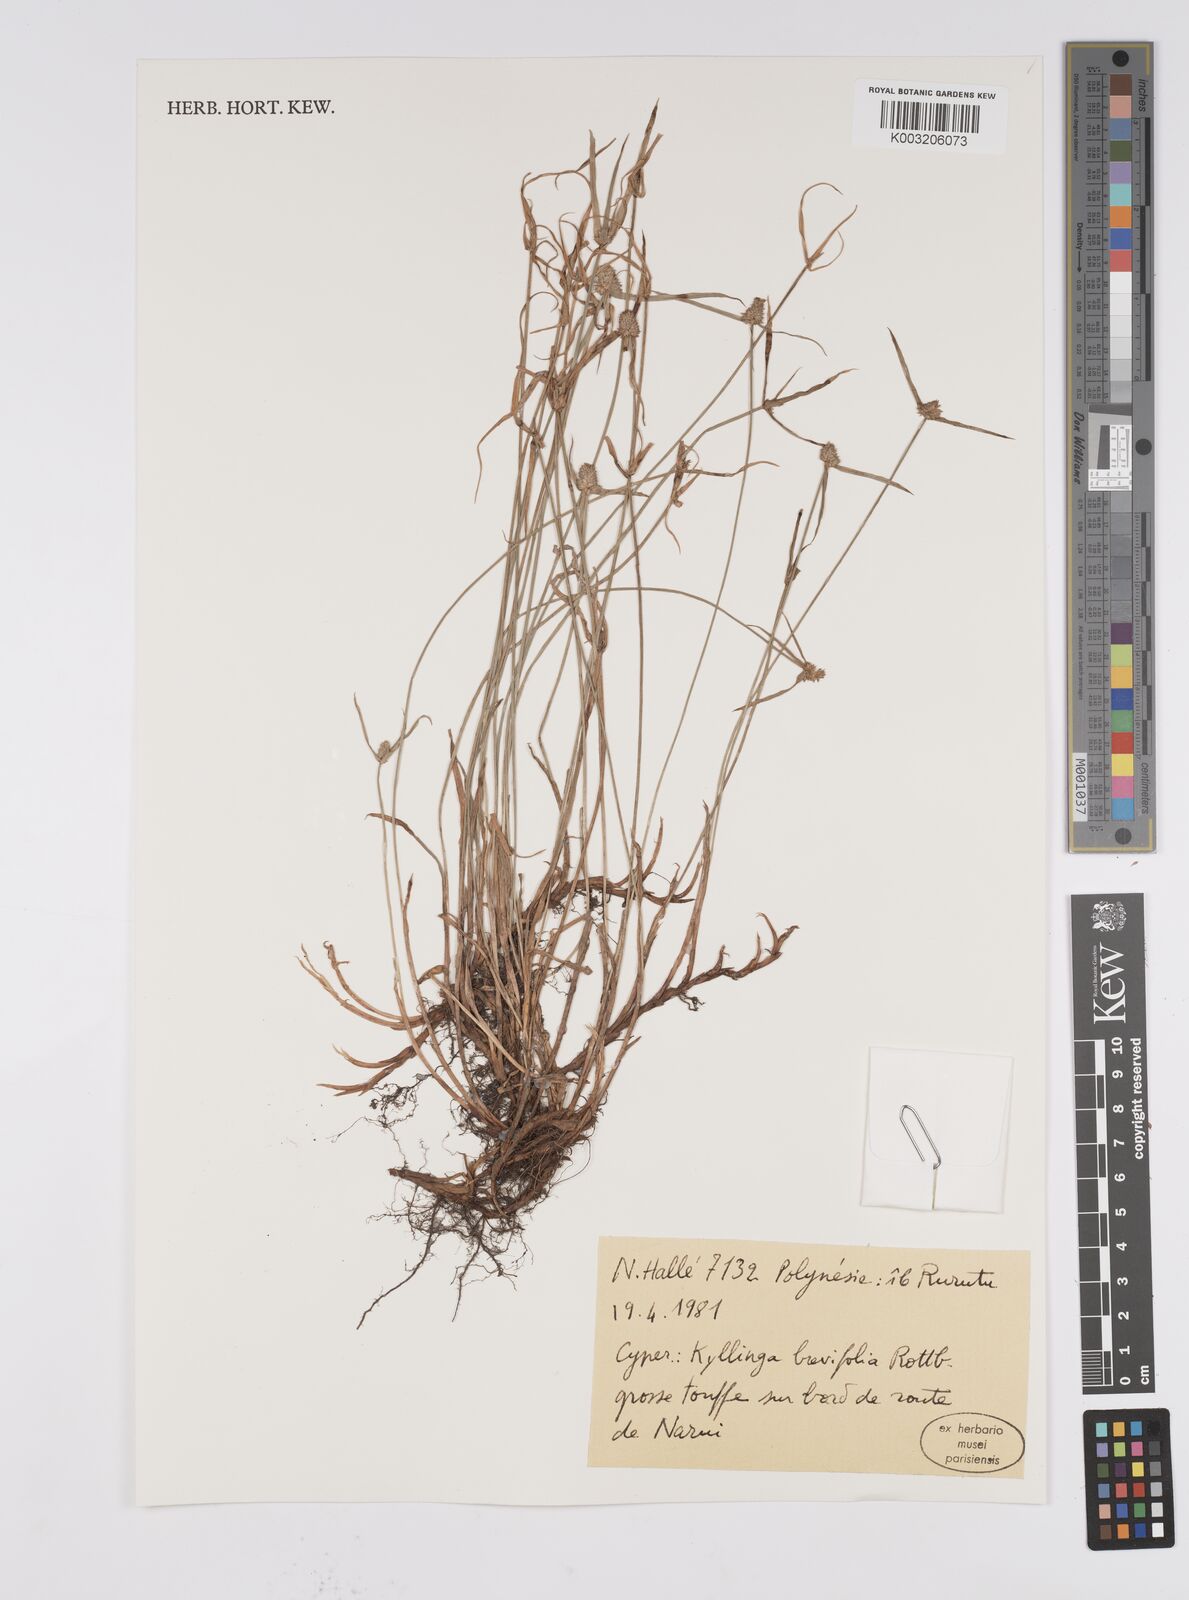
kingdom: Plantae
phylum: Tracheophyta
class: Liliopsida
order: Poales
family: Cyperaceae
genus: Cyperus
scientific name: Cyperus brevifolius
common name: Globe kyllinga
